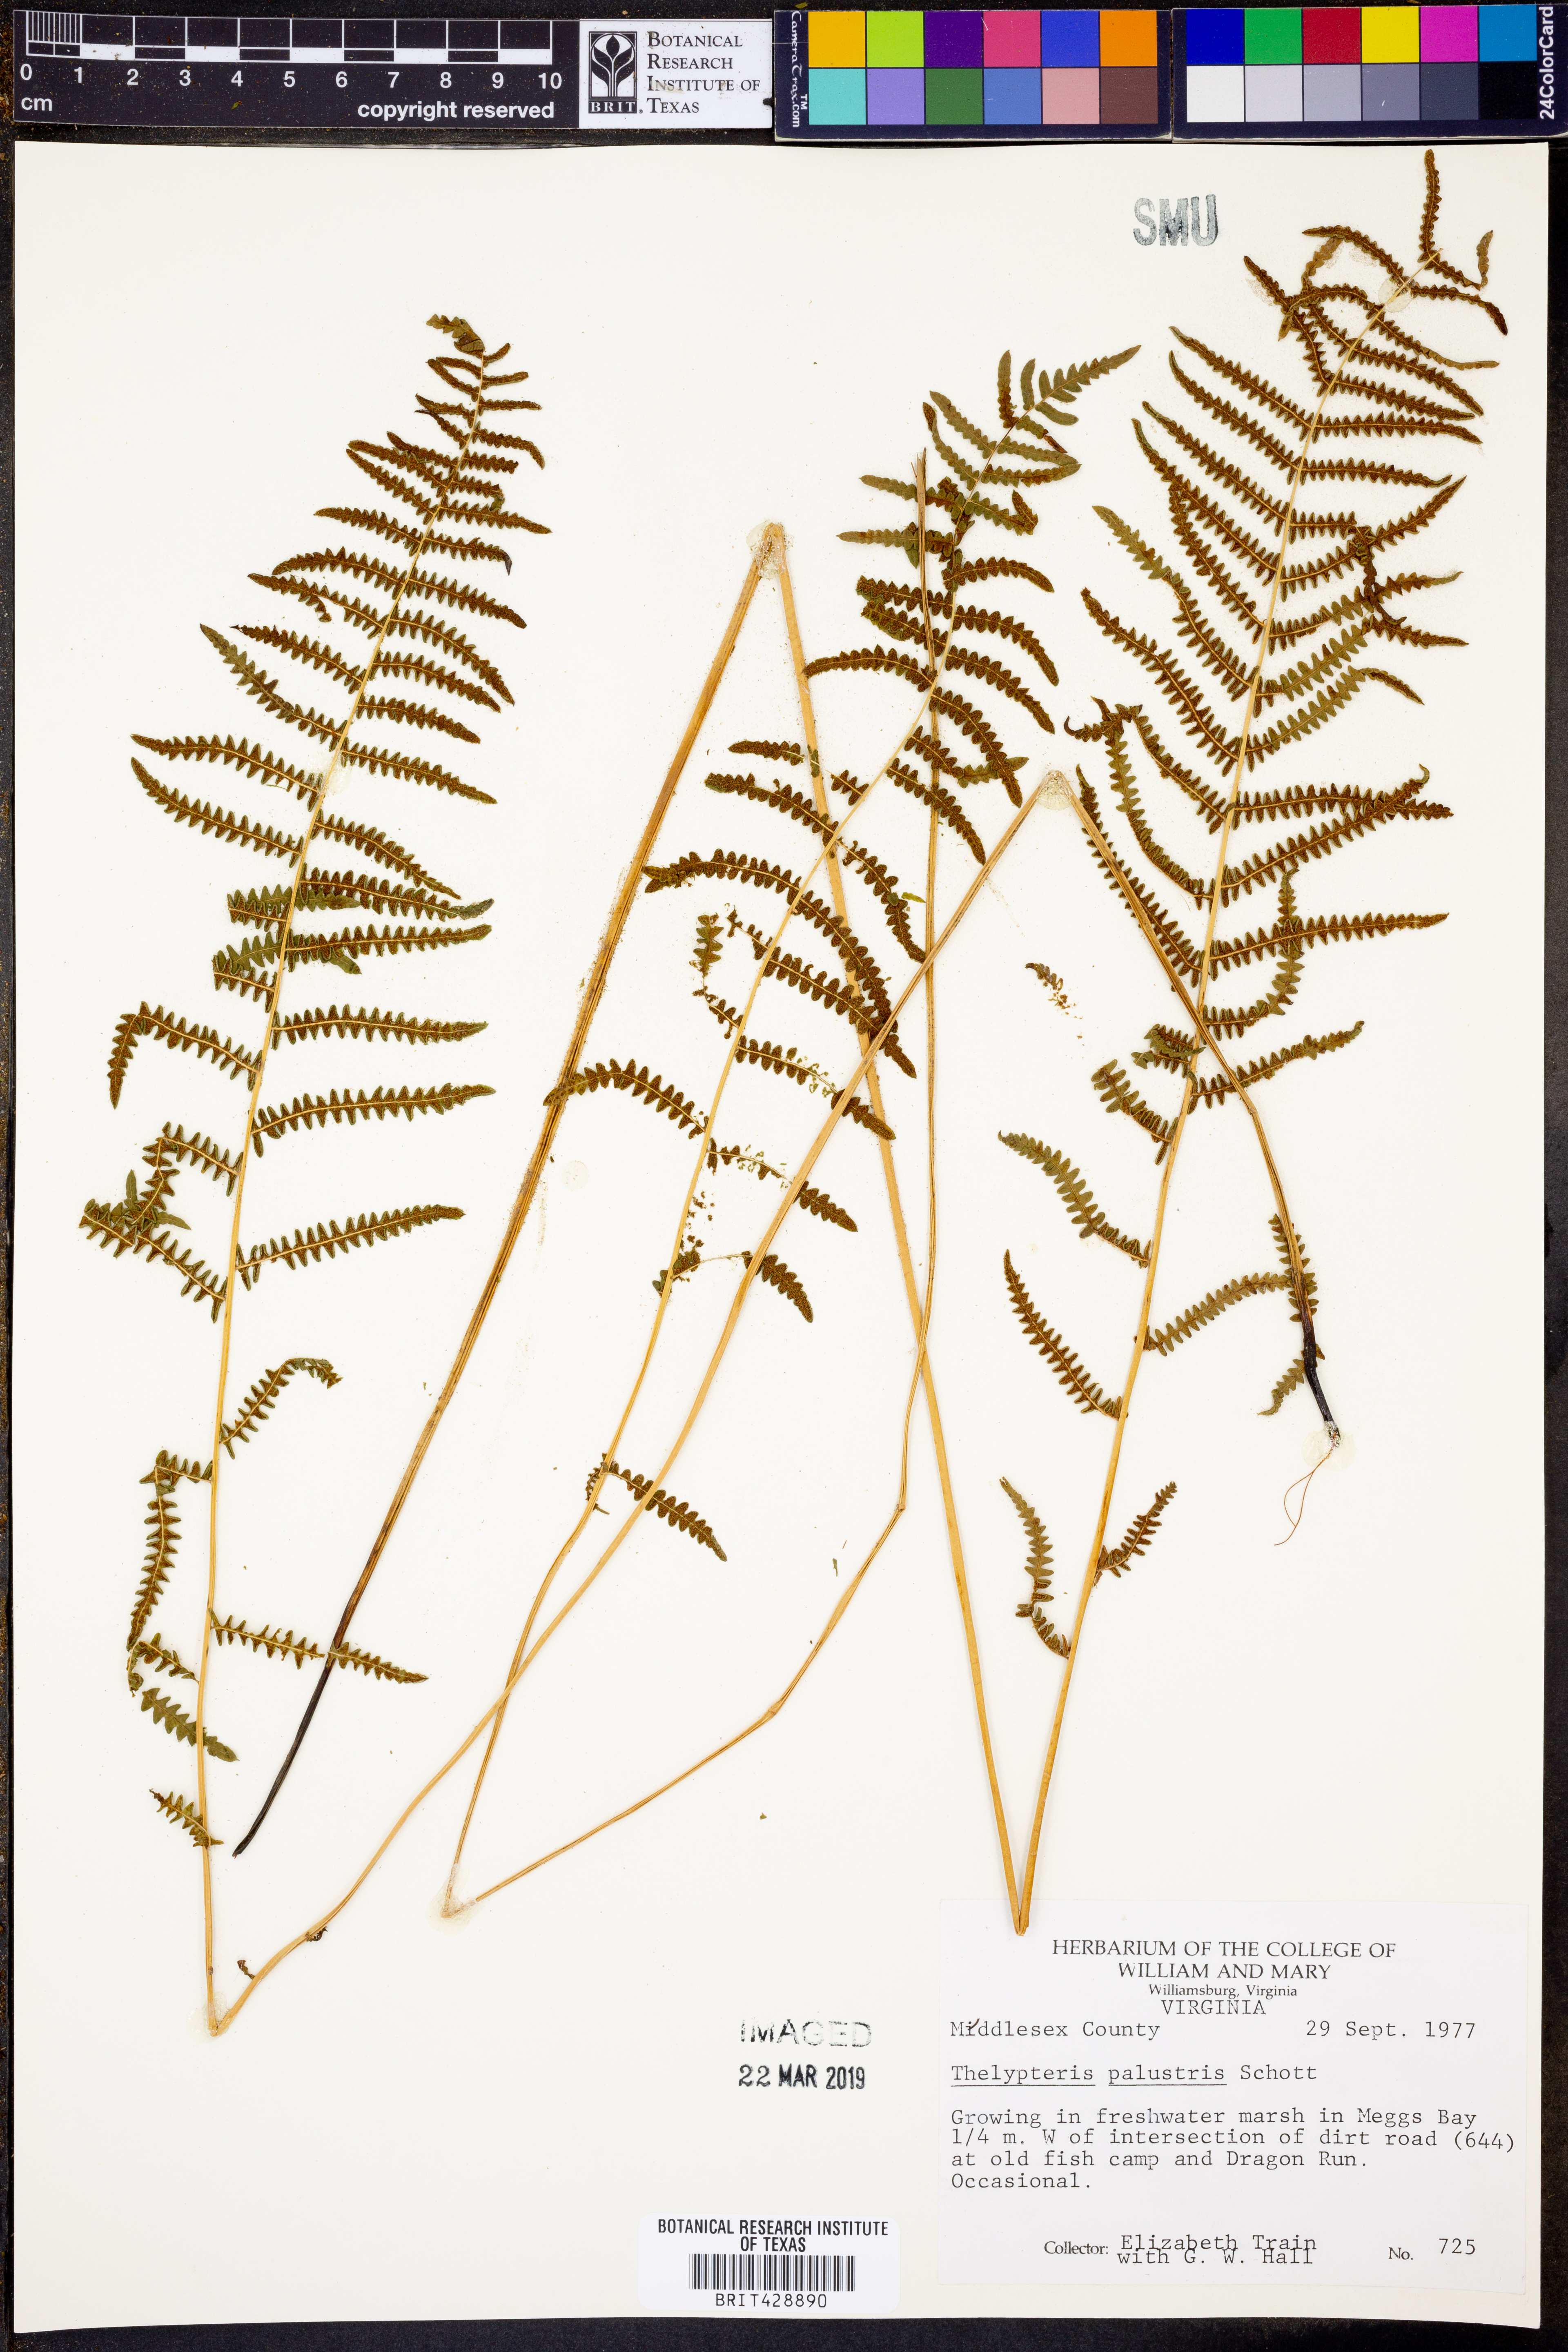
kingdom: Plantae
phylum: Tracheophyta
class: Polypodiopsida
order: Polypodiales
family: Thelypteridaceae
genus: Thelypteris
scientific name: Thelypteris palustris
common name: Marsh fern
